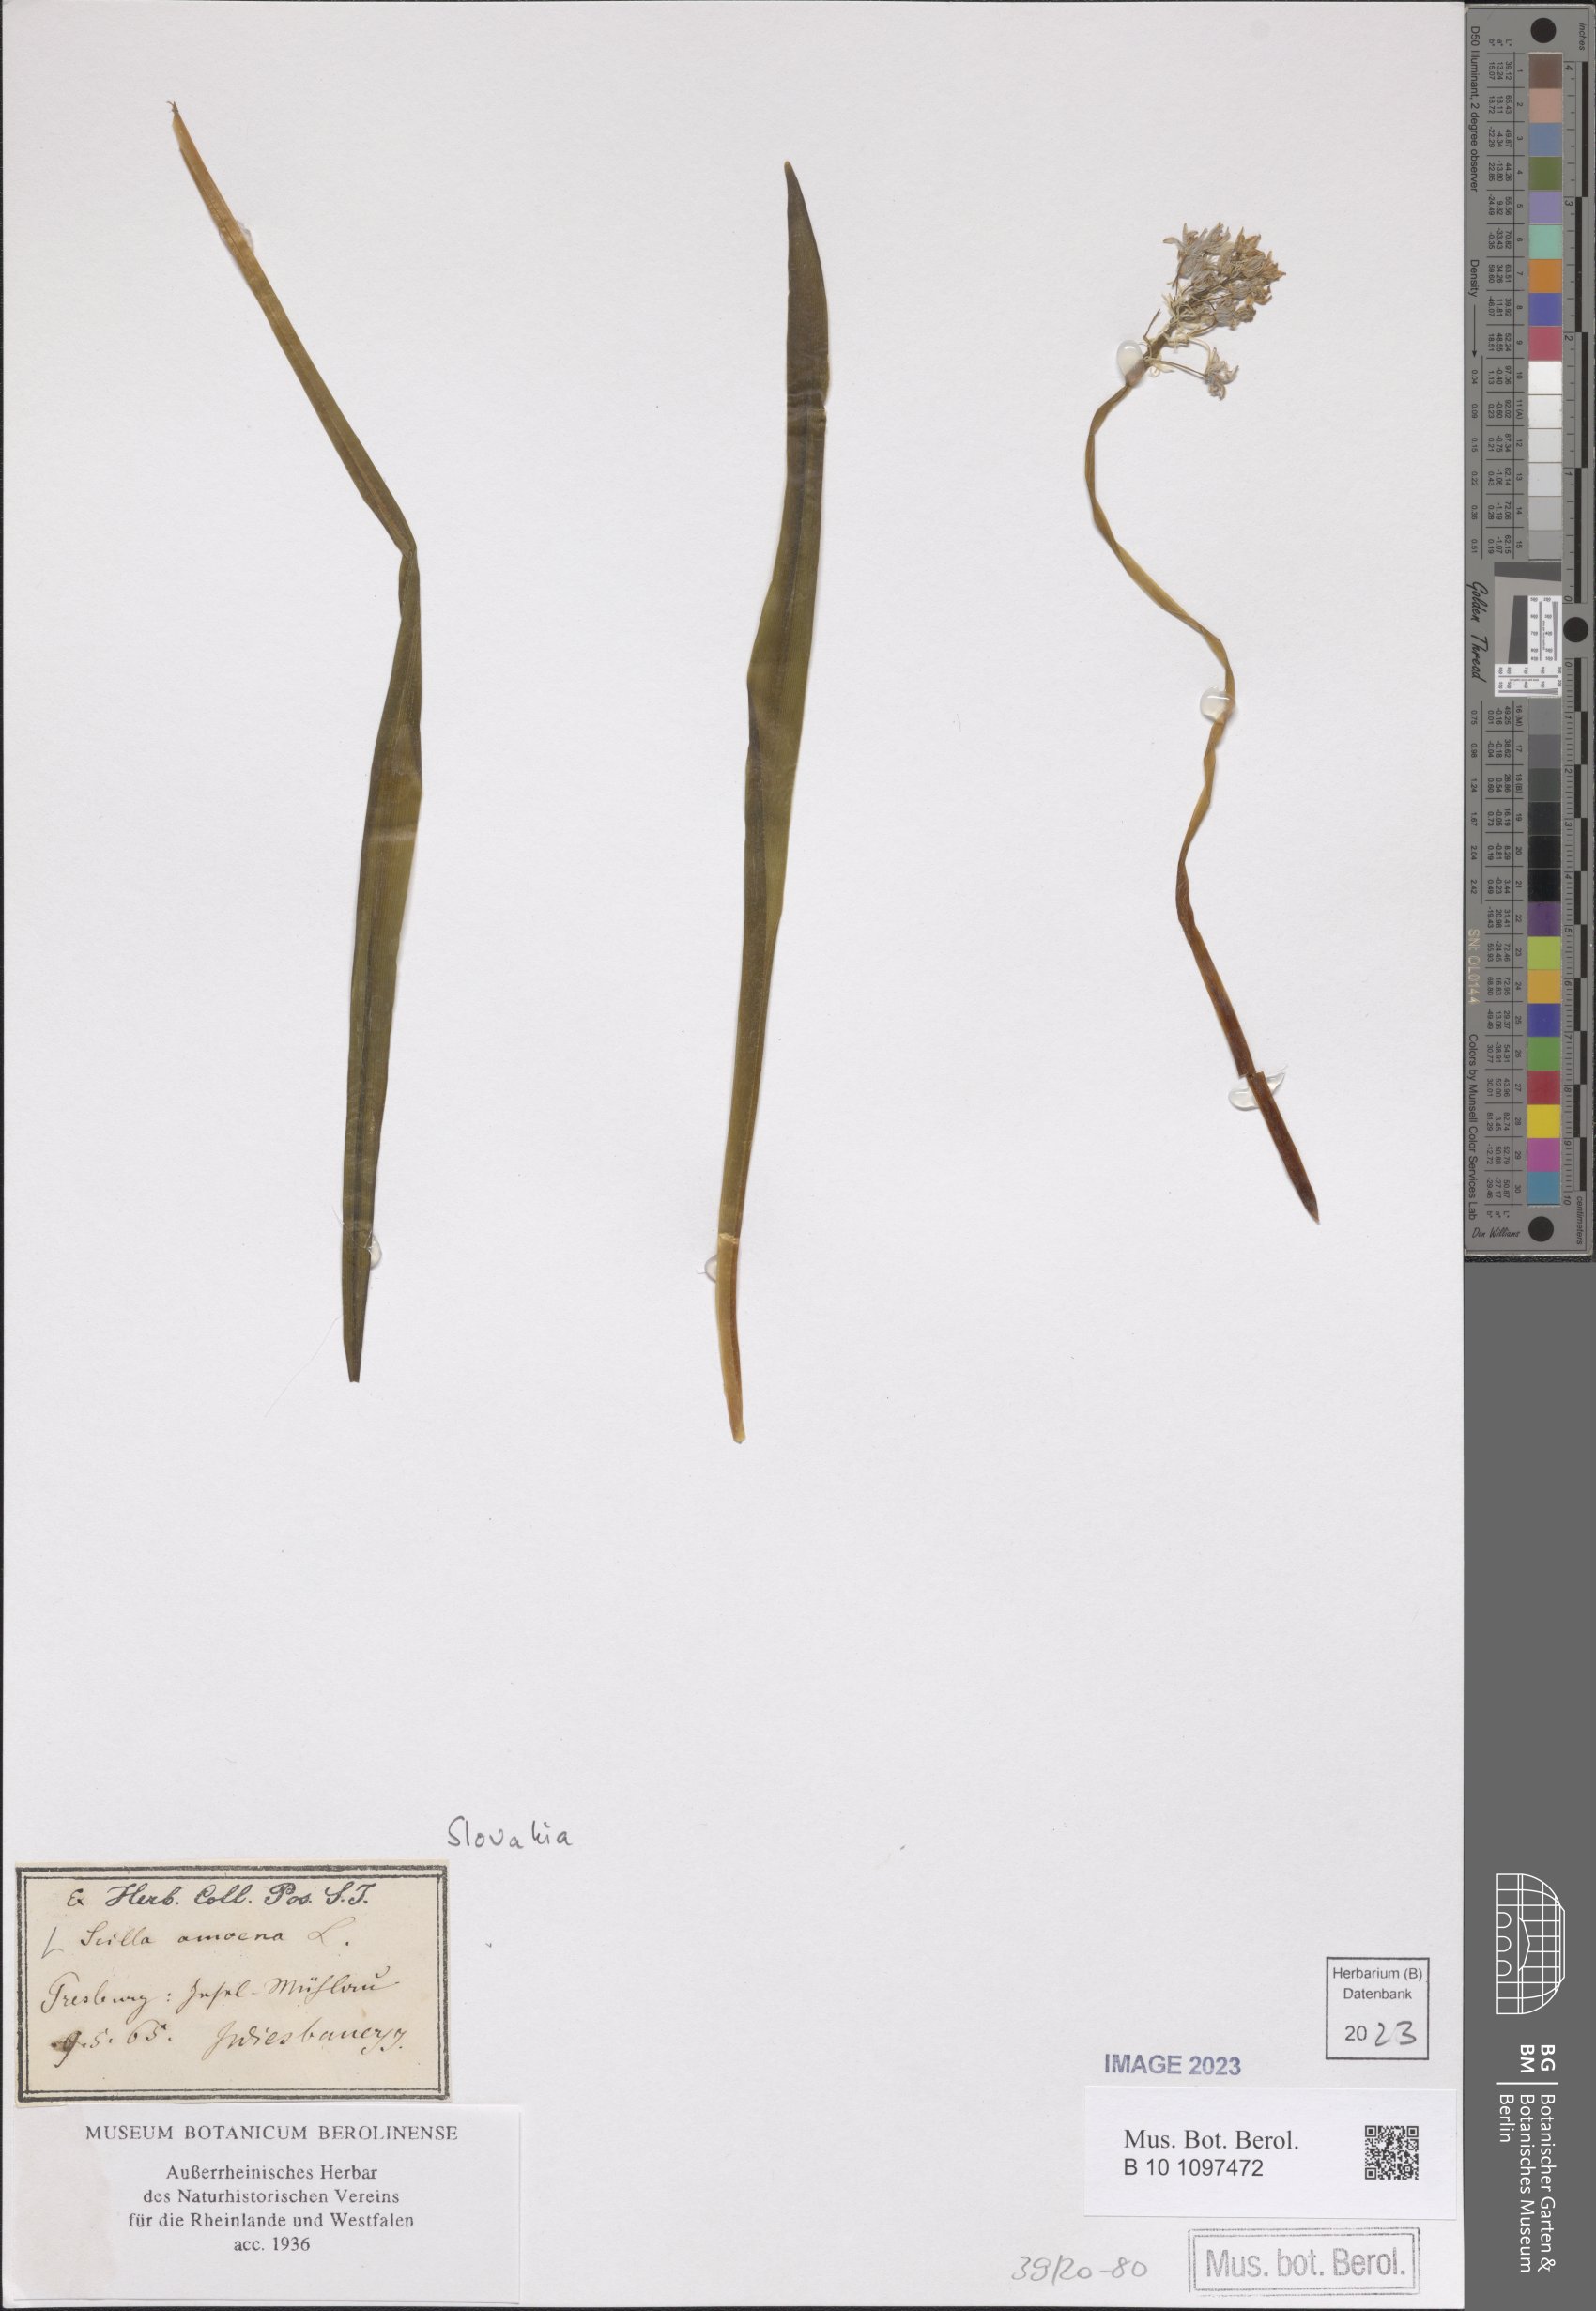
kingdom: Plantae
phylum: Tracheophyta
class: Liliopsida
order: Asparagales
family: Asparagaceae
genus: Scilla
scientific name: Scilla amoena
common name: Star-hyacinth
